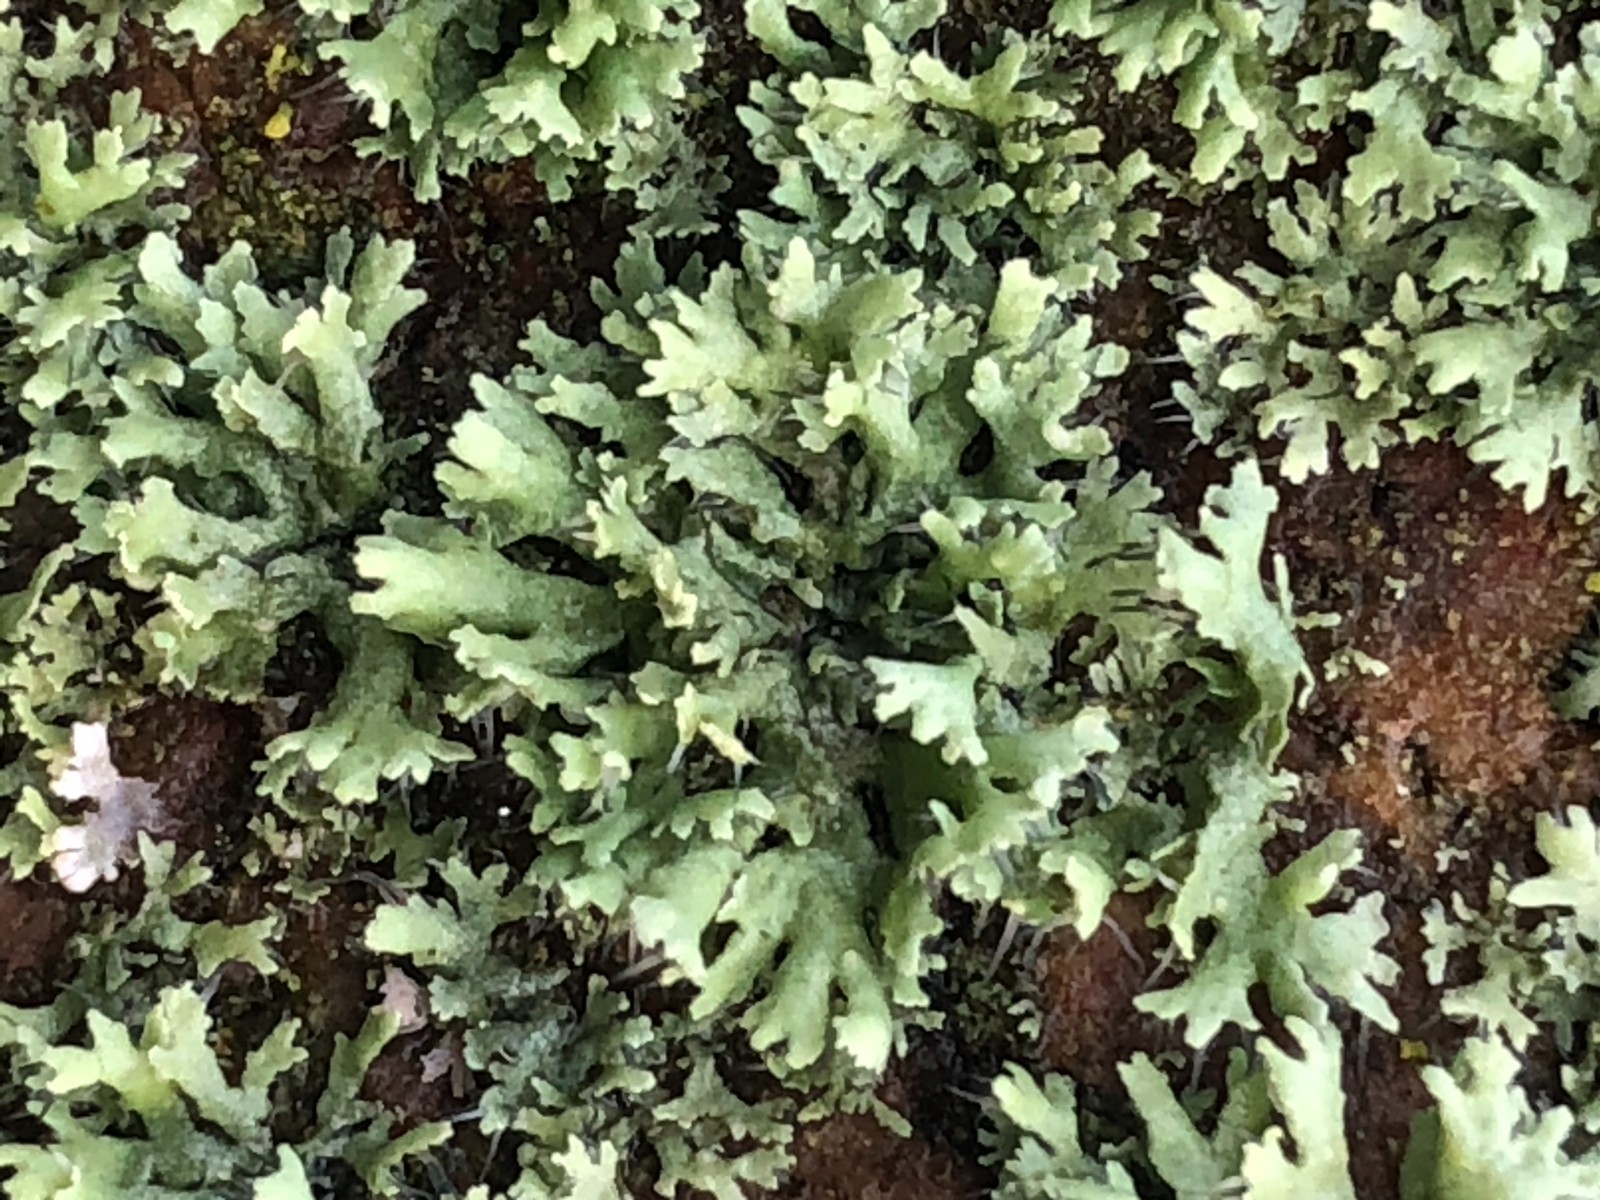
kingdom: Fungi
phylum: Ascomycota
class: Lecanoromycetes
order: Caliciales
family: Physciaceae
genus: Physcia
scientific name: Physcia
